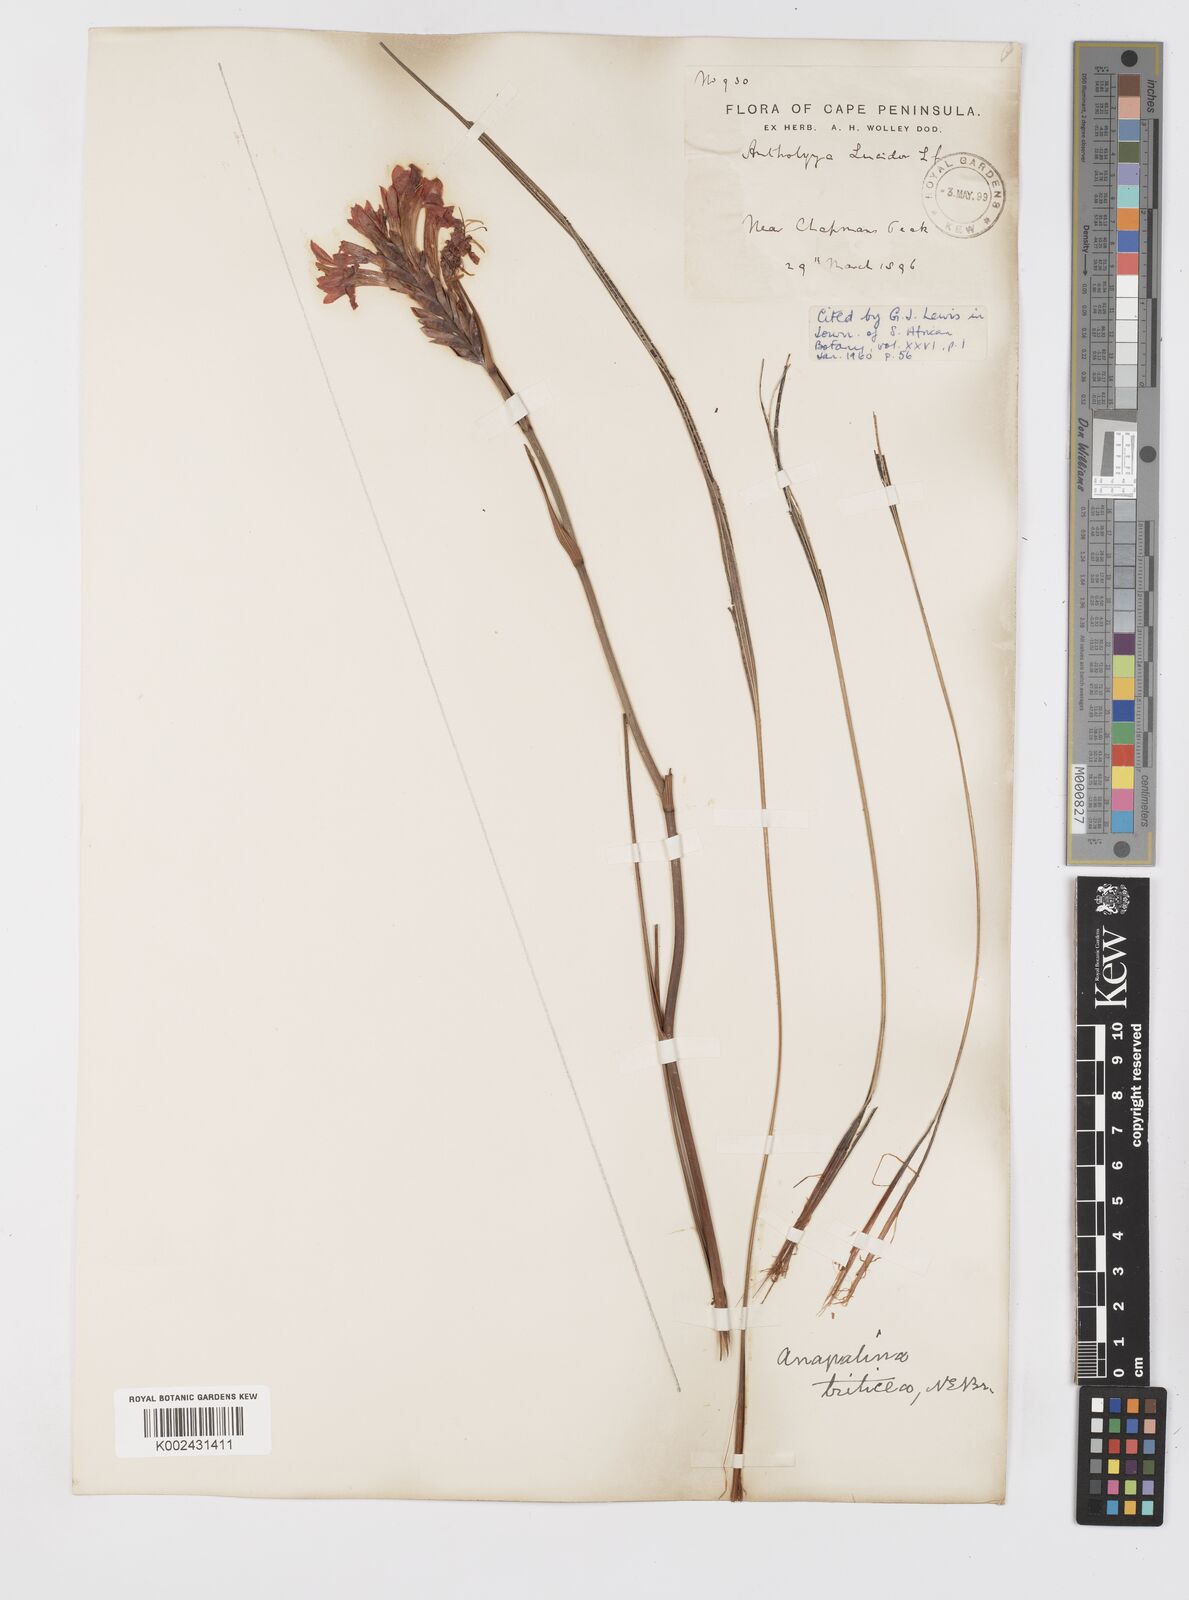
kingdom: Plantae
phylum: Tracheophyta
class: Liliopsida
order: Asparagales
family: Iridaceae
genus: Tritoniopsis
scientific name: Tritoniopsis triticea
